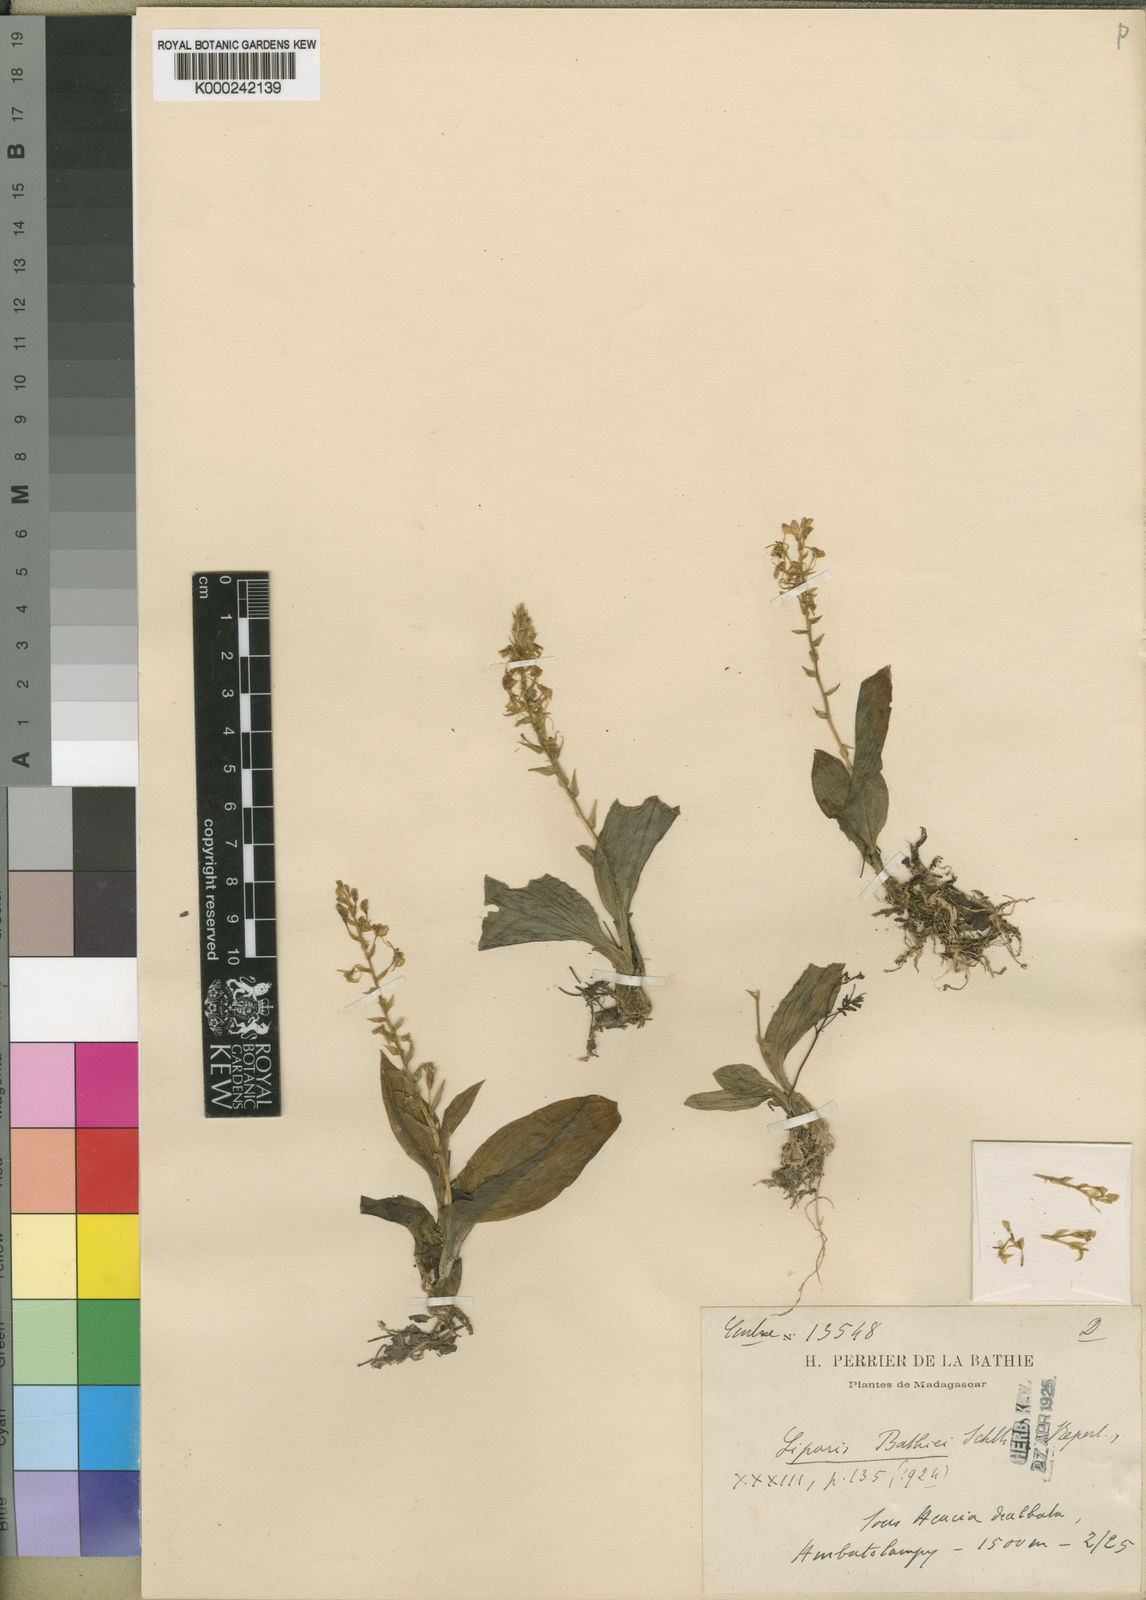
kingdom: Plantae
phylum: Tracheophyta
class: Liliopsida
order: Asparagales
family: Orchidaceae
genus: Liparis
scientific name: Liparis bathiei
